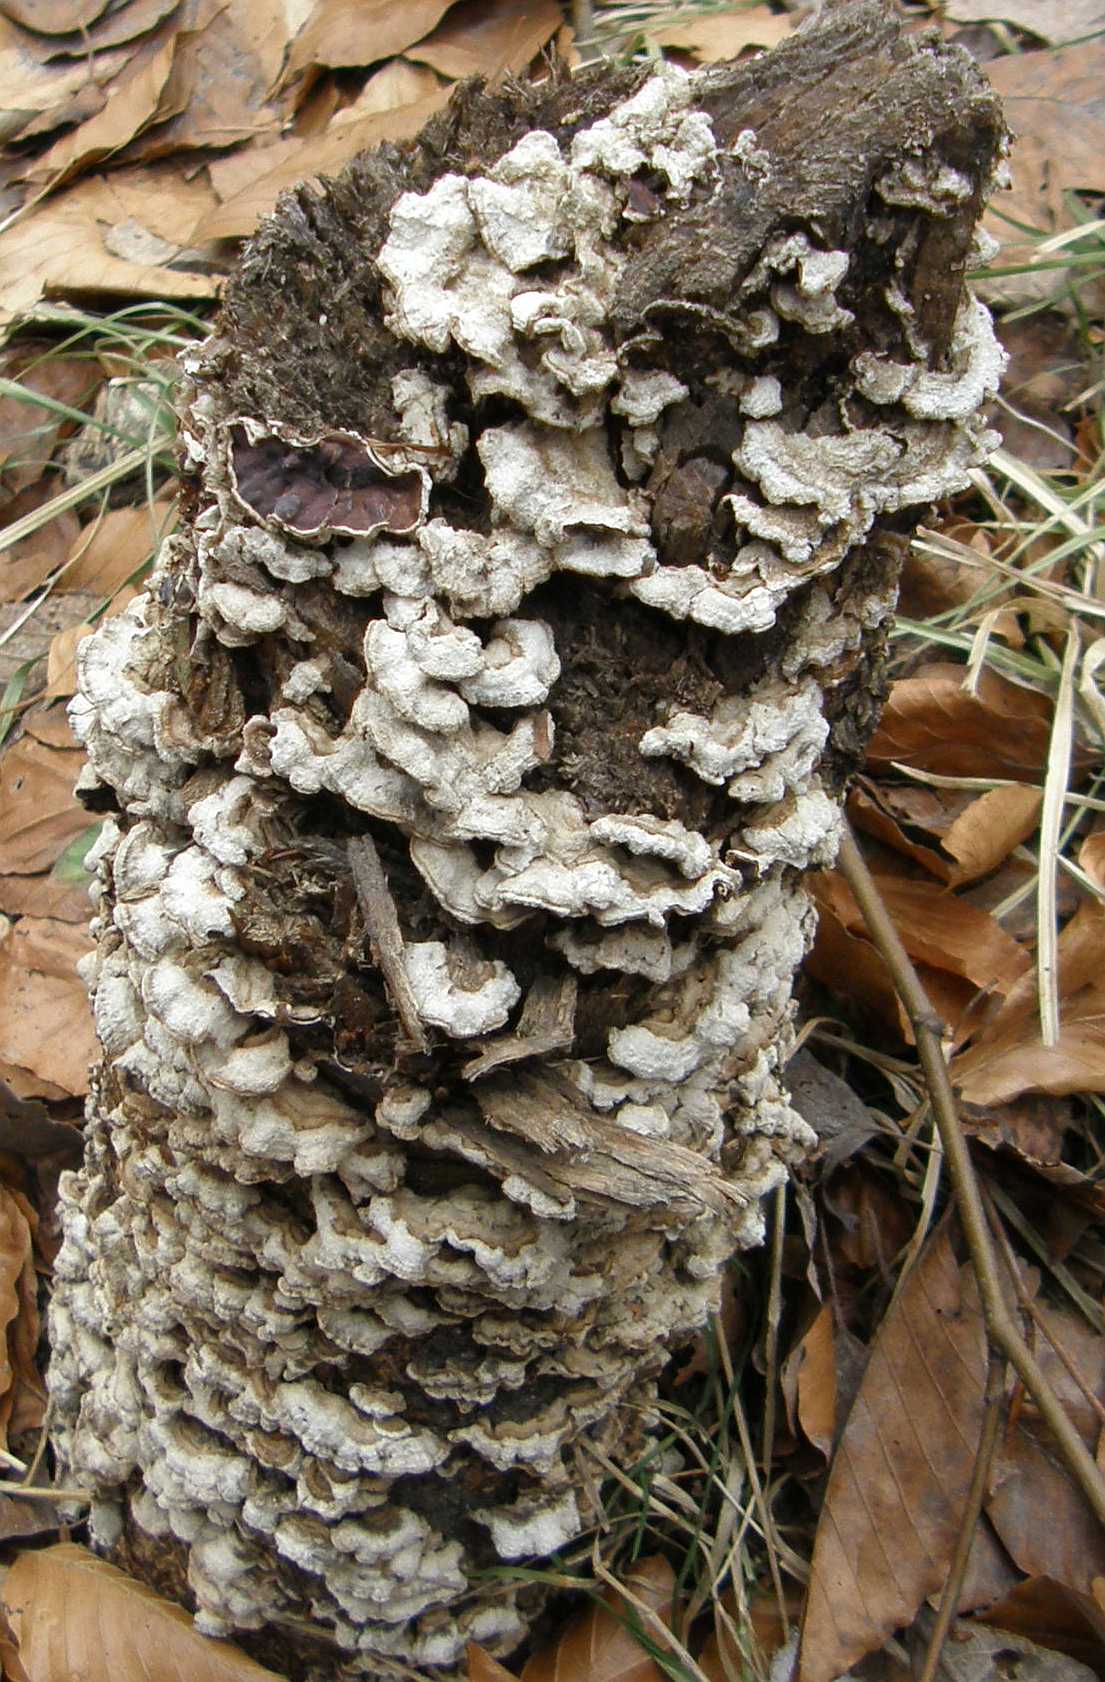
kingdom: Fungi
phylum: Basidiomycota
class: Agaricomycetes
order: Agaricales
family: Cyphellaceae
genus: Chondrostereum
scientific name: Chondrostereum purpureum
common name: purpurlædersvamp
